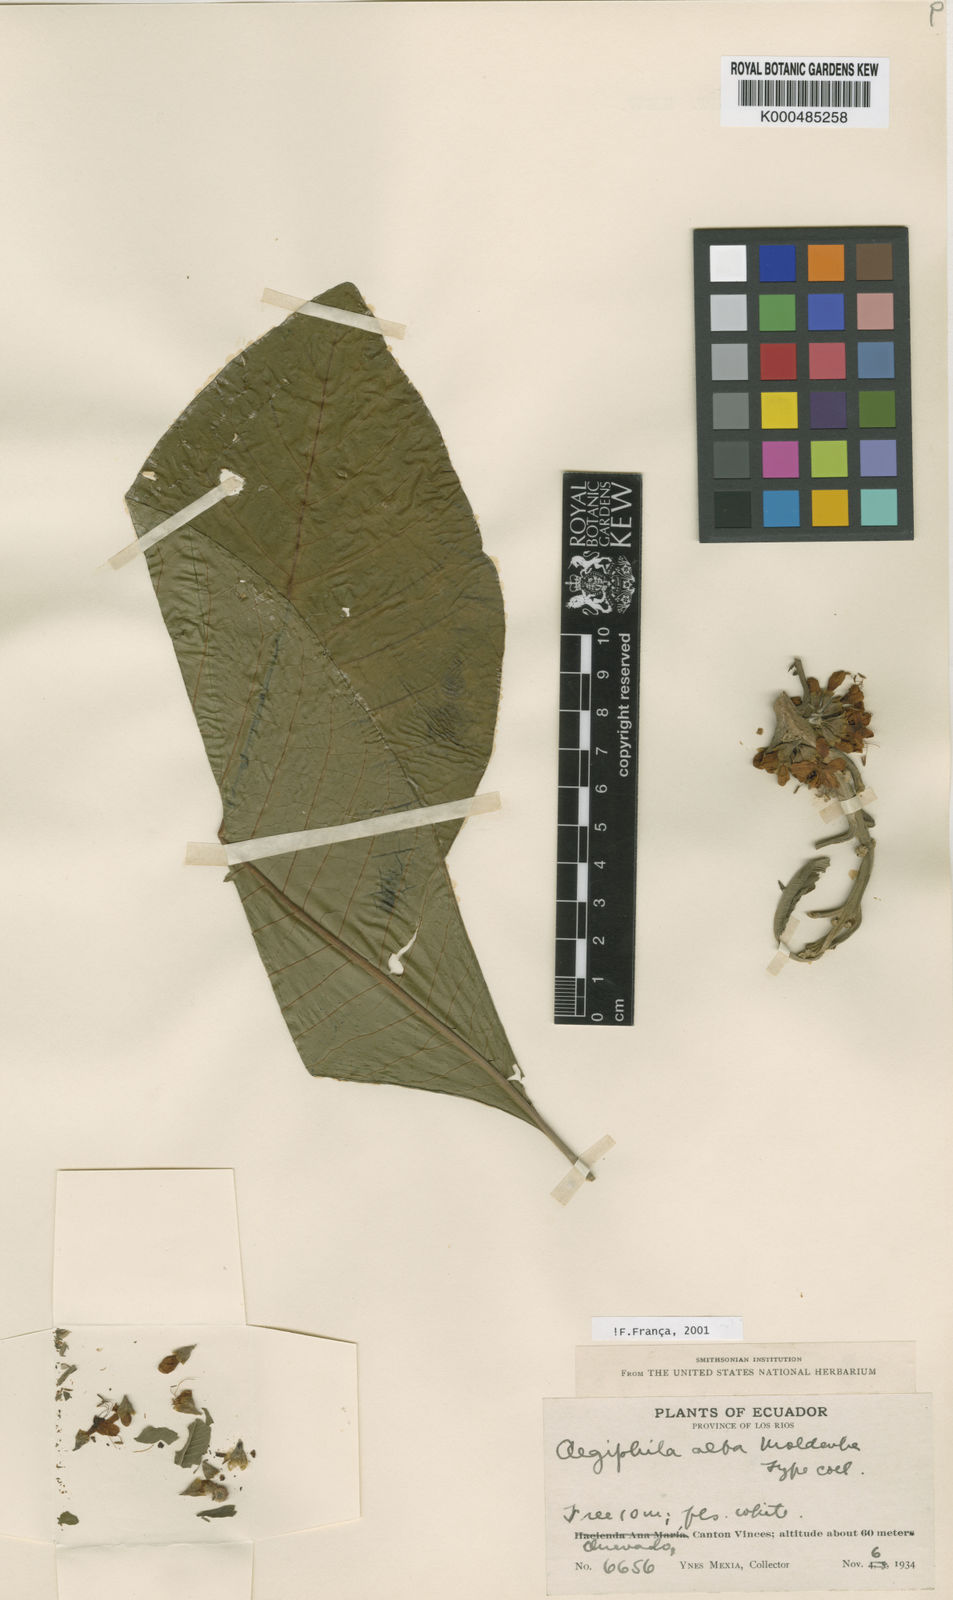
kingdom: Plantae
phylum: Tracheophyta
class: Magnoliopsida
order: Lamiales
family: Lamiaceae
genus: Aegiphila
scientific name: Aegiphila alba
